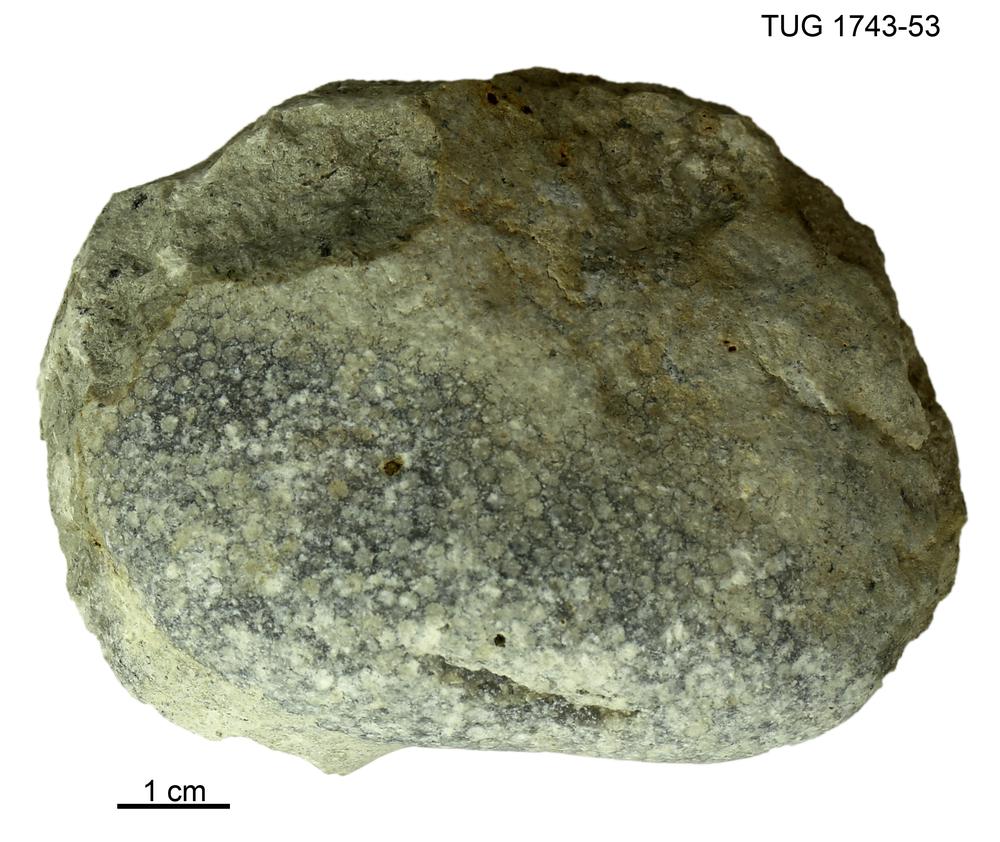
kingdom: Animalia
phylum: Cnidaria
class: Anthozoa
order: Heliolitina
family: Taeniolitidae
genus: Wormsipora
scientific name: Wormsipora
